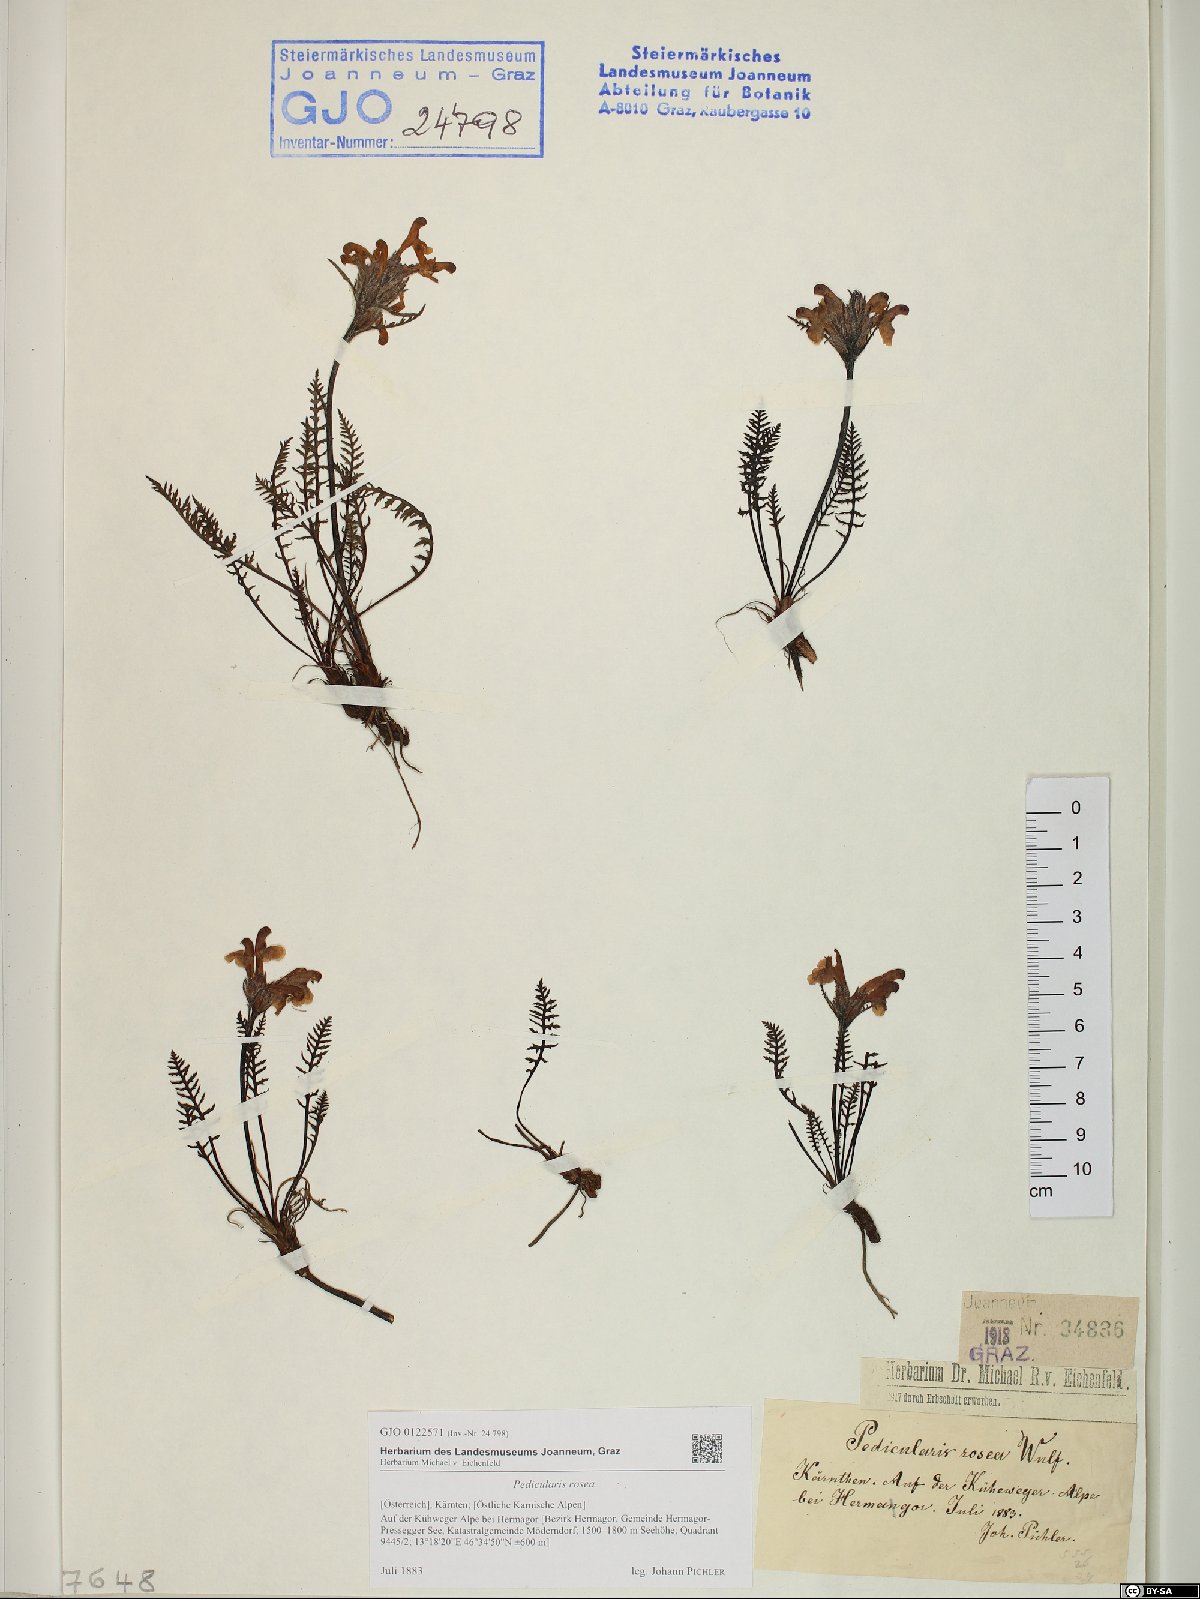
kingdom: Plantae
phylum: Tracheophyta
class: Magnoliopsida
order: Lamiales
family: Orobanchaceae
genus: Pedicularis
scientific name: Pedicularis rosea
